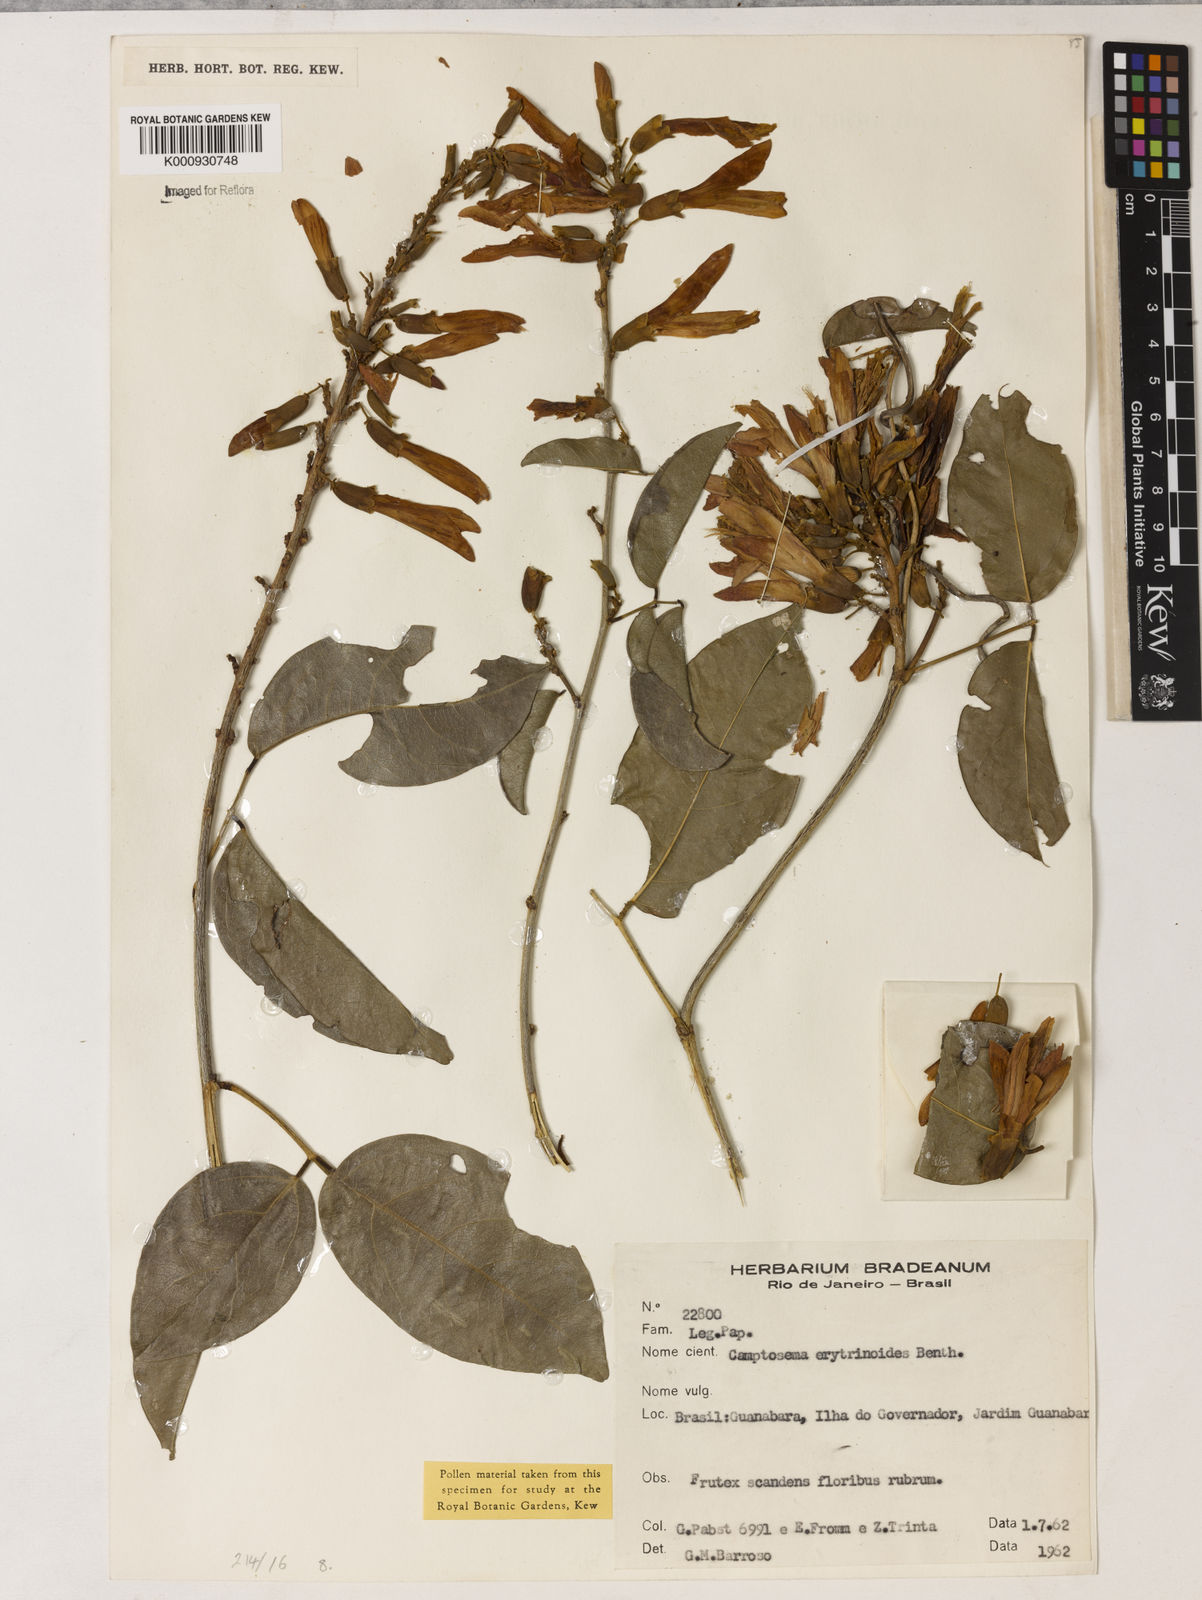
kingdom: Plantae
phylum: Tracheophyta
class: Magnoliopsida
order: Fabales
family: Fabaceae
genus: Cratylia
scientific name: Cratylia isopetala
